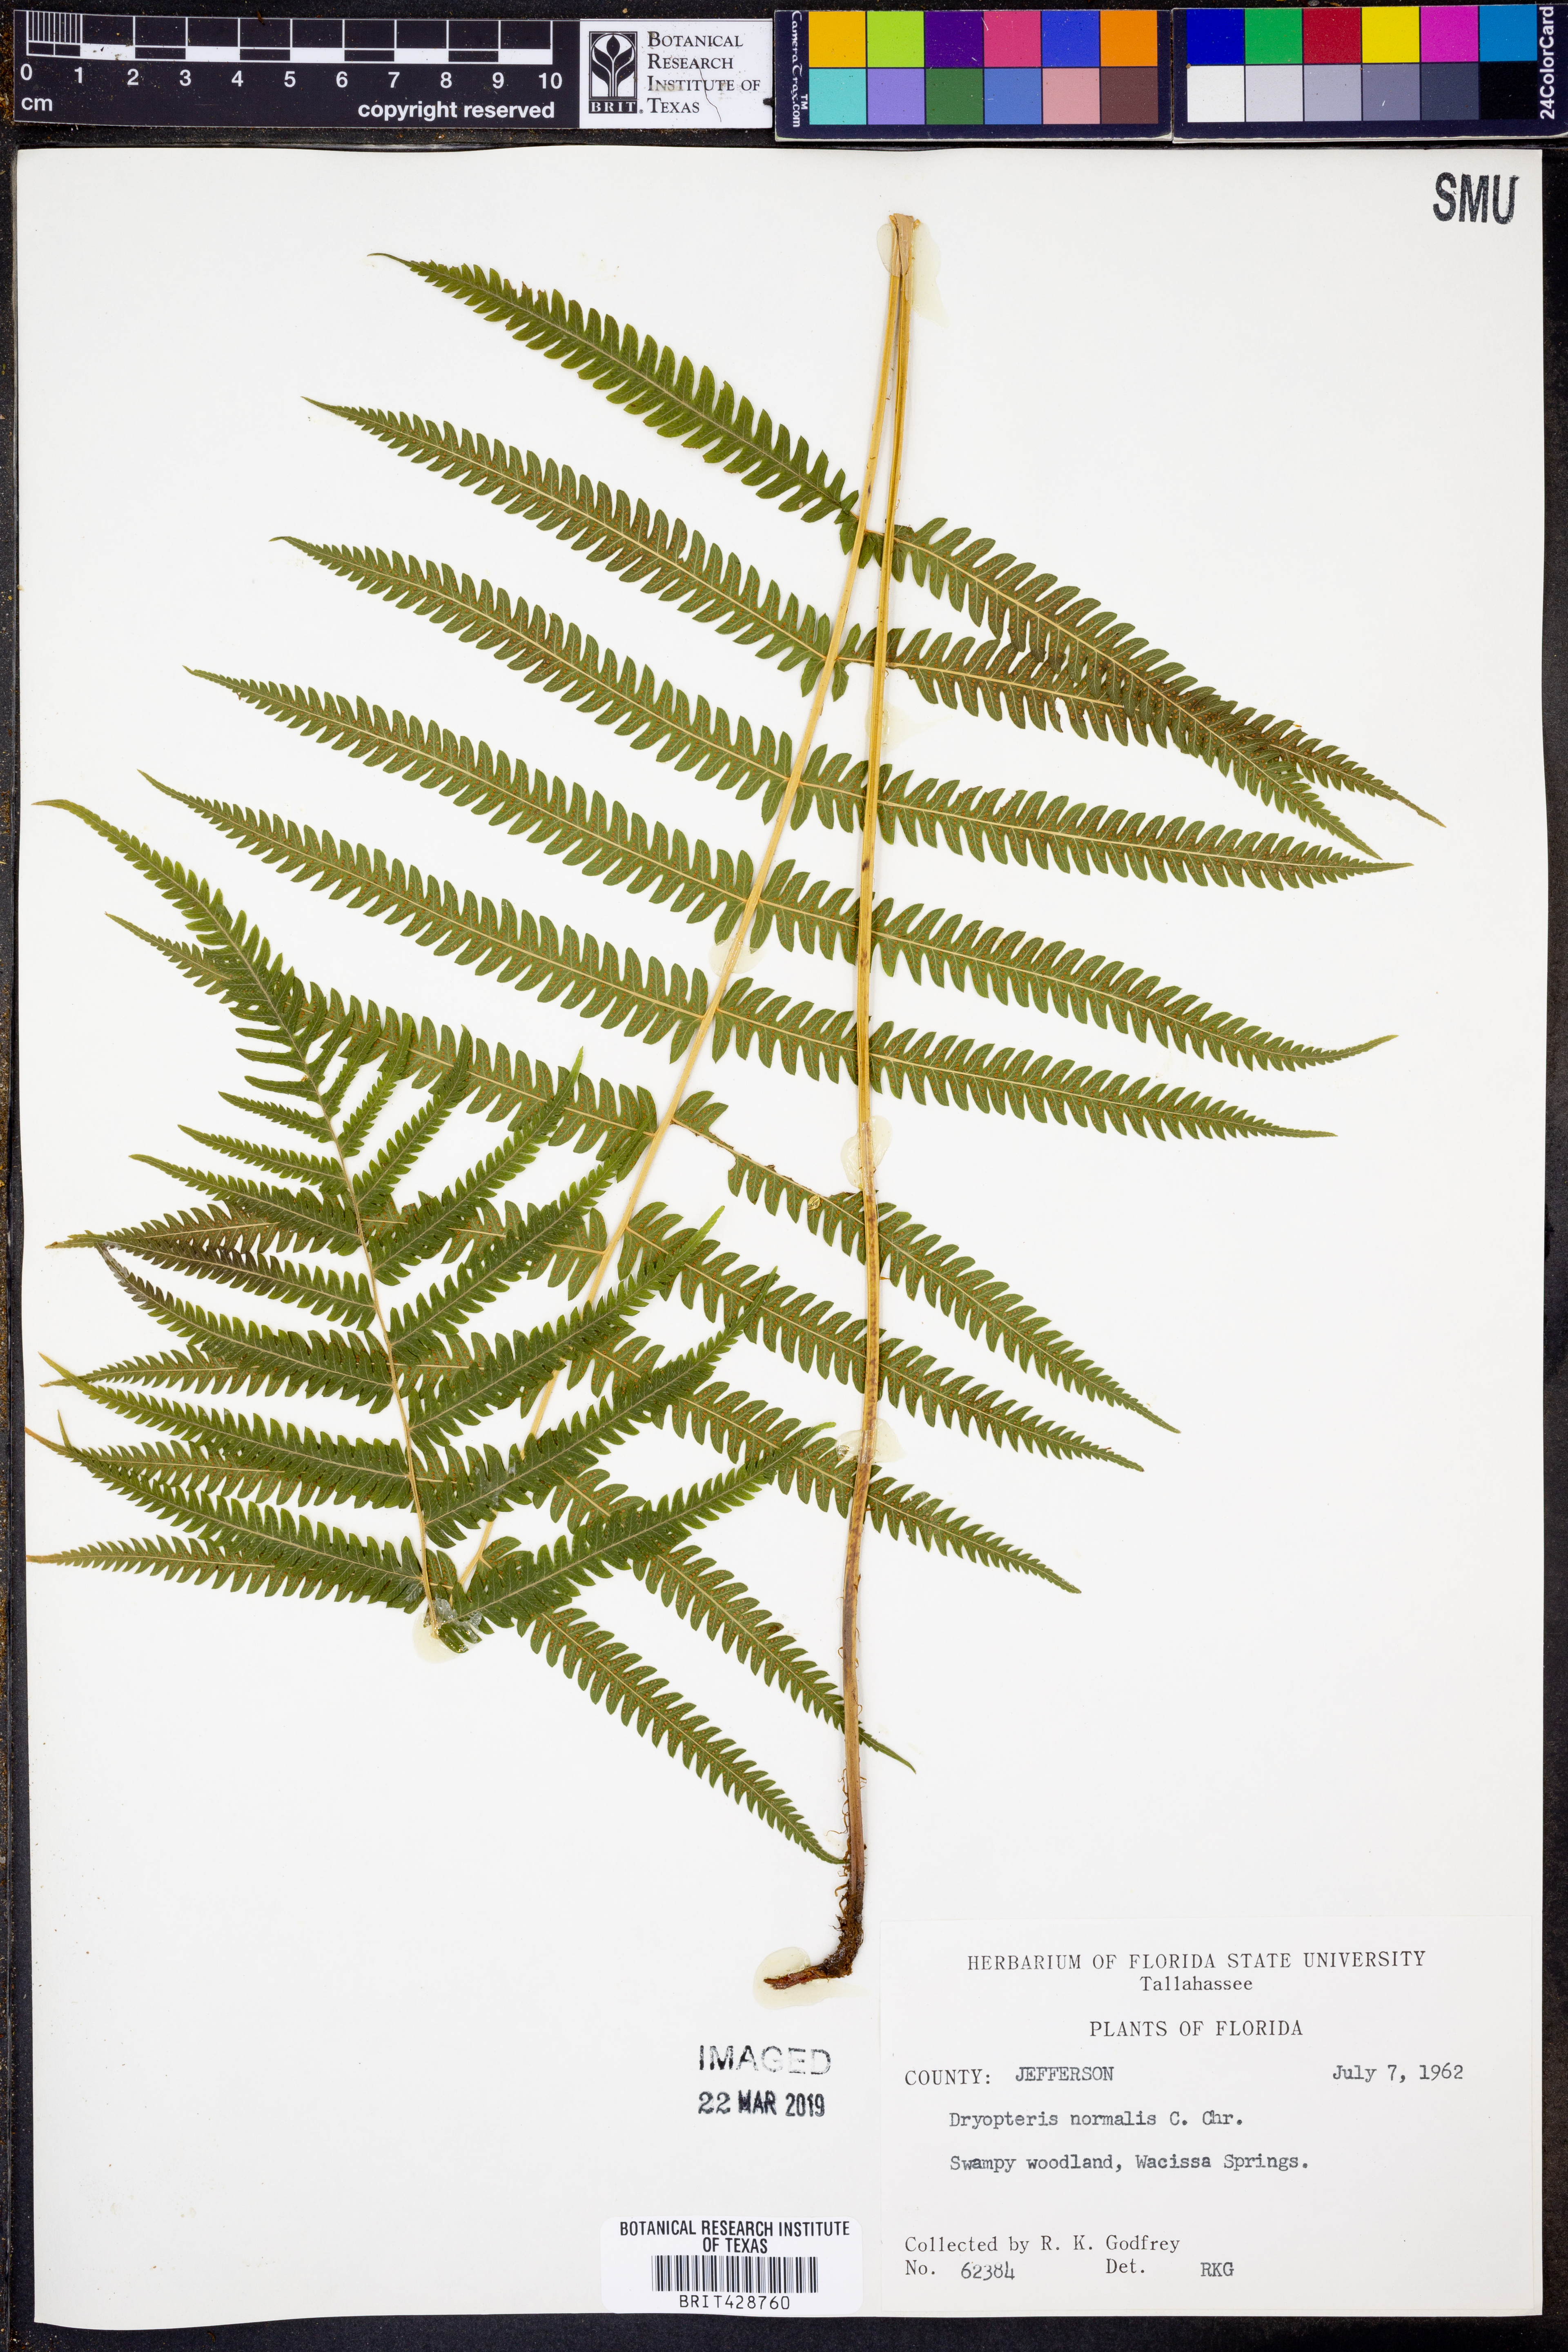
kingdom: Plantae
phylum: Tracheophyta
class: Polypodiopsida
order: Polypodiales
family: Thelypteridaceae
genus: Pelazoneuron
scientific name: Pelazoneuron kunthii
